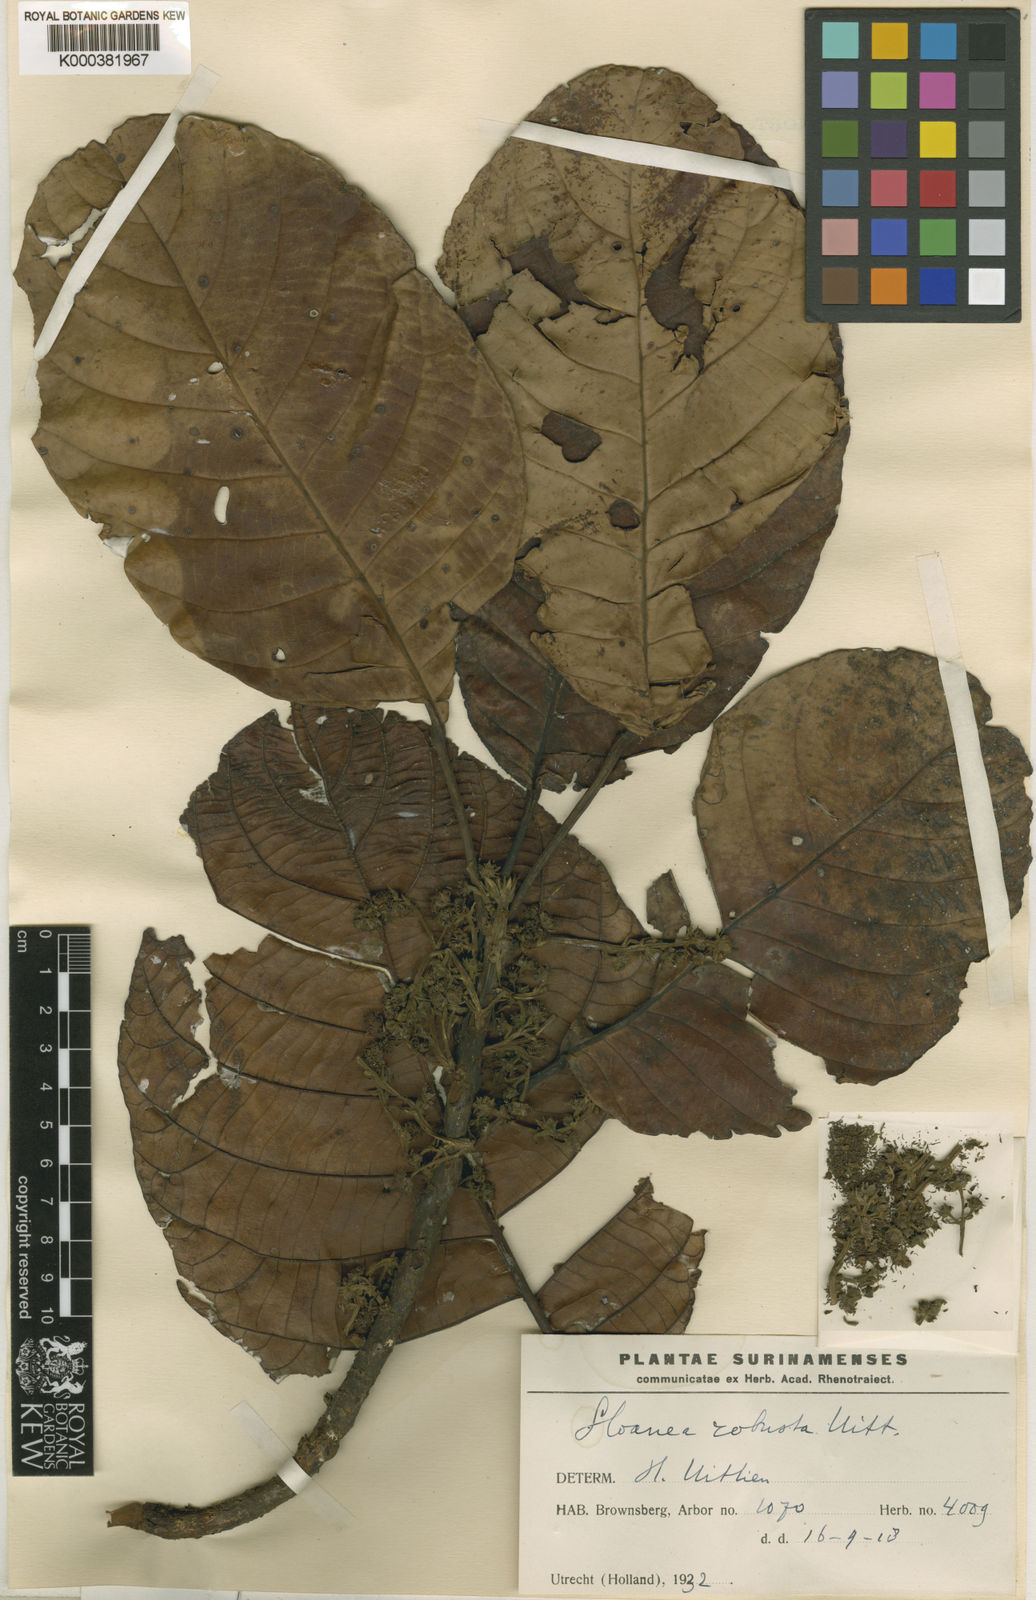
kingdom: Plantae
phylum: Tracheophyta
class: Magnoliopsida
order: Oxalidales
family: Elaeocarpaceae
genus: Sloanea
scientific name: Sloanea usurpatrix
